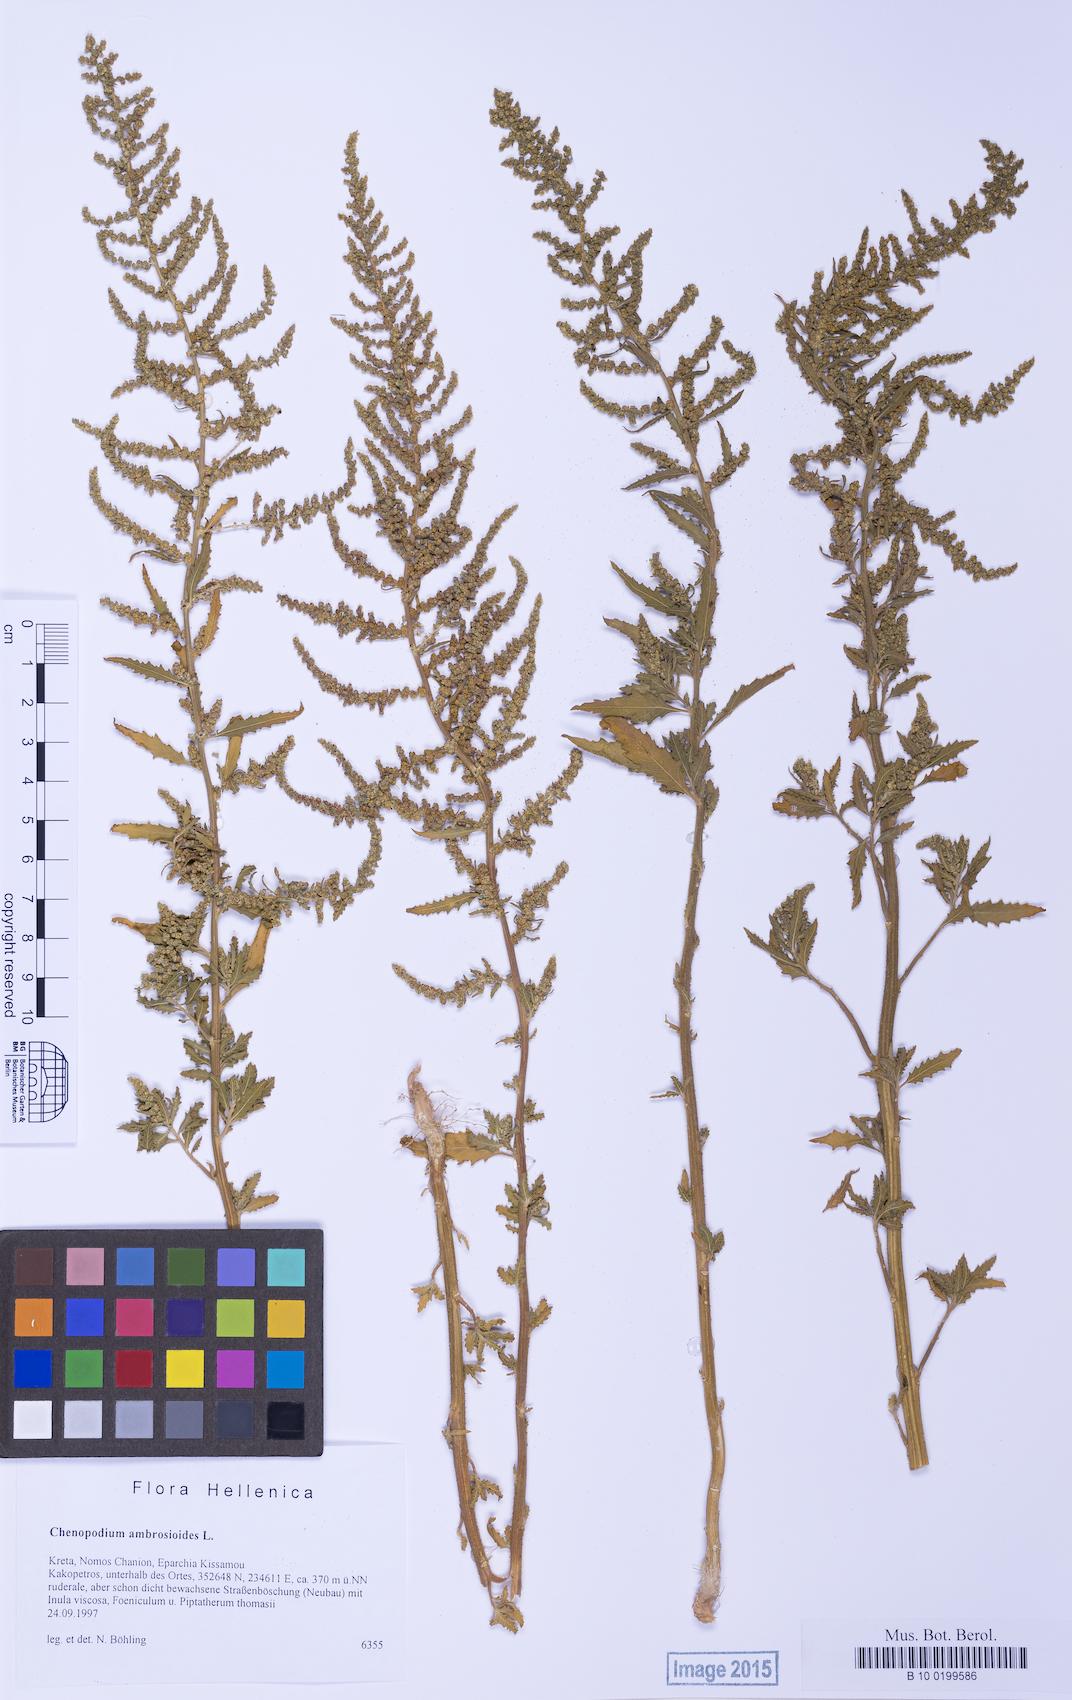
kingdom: Plantae
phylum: Tracheophyta
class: Magnoliopsida
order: Caryophyllales
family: Amaranthaceae
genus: Dysphania
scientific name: Dysphania ambrosioides
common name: Wormseed
